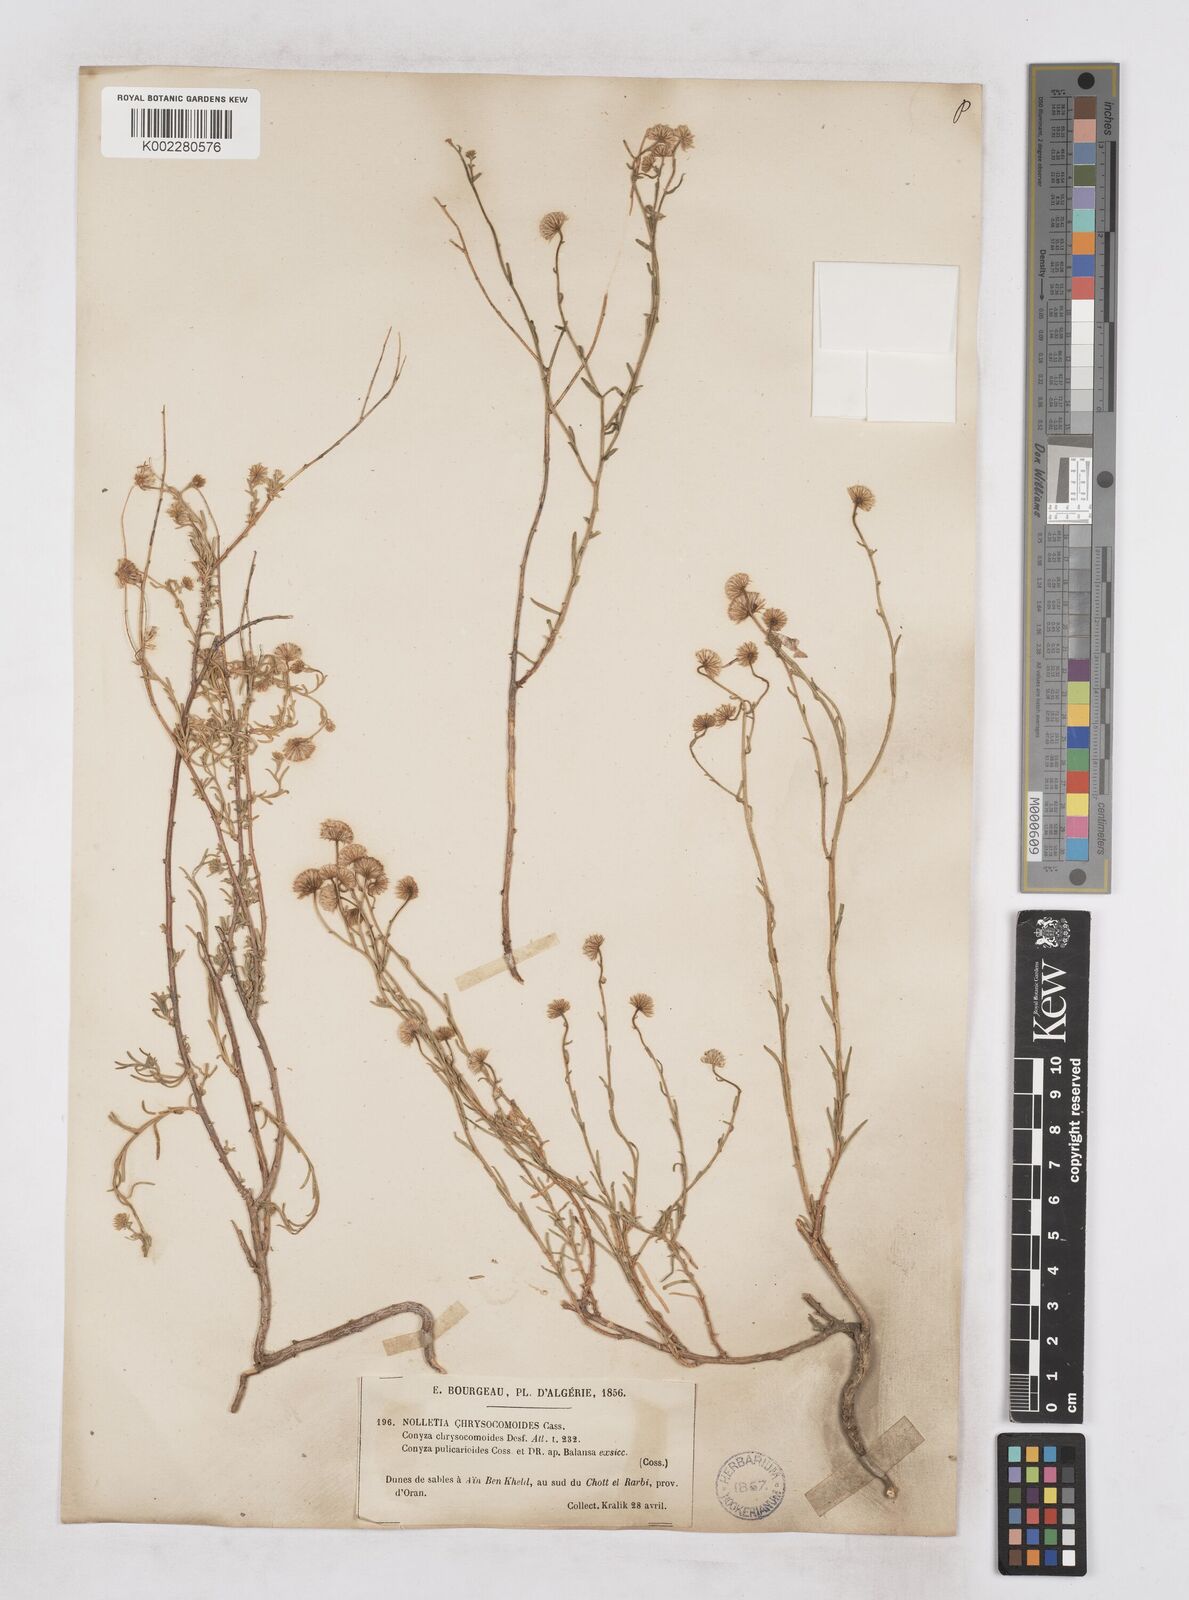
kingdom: Plantae
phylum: Tracheophyta
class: Magnoliopsida
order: Asterales
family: Asteraceae
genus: Nolletia
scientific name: Nolletia chrysocomoides
